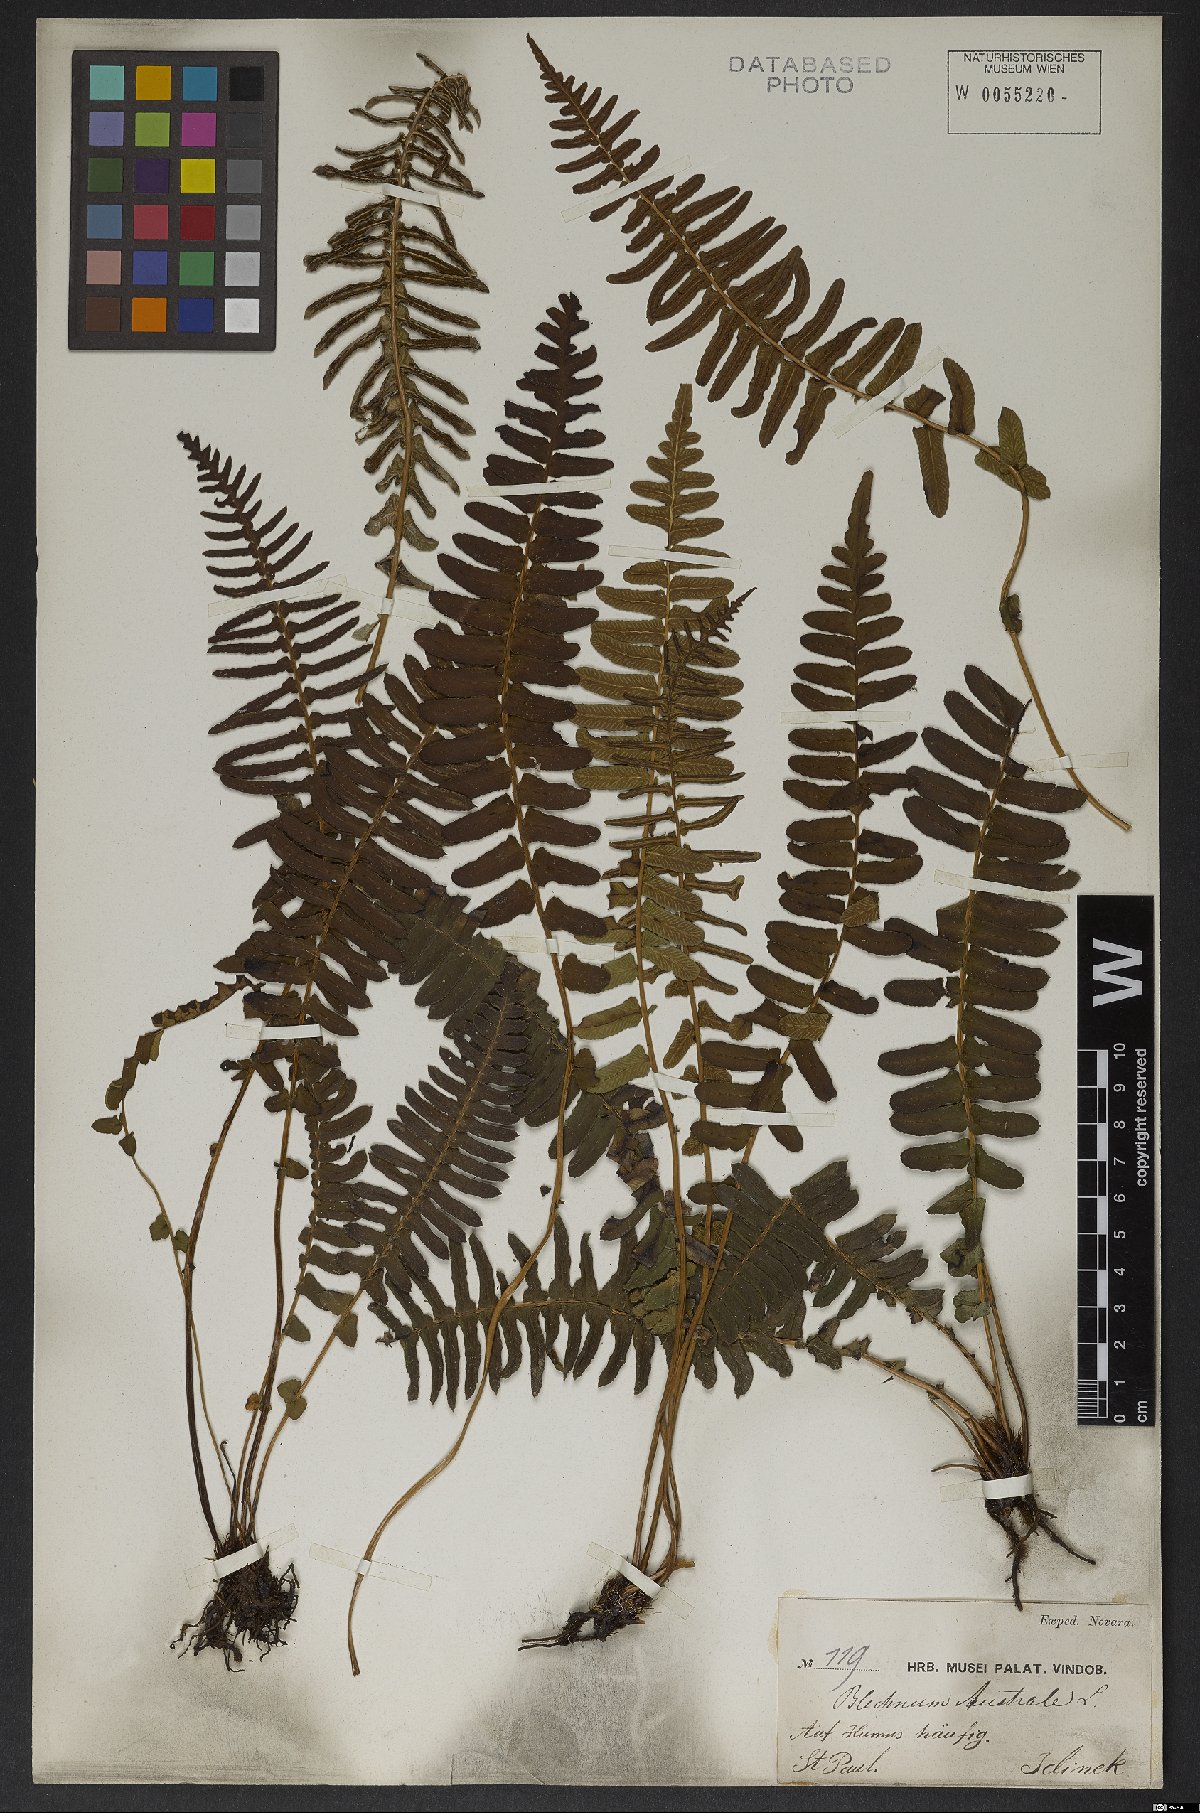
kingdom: Plantae
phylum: Tracheophyta
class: Polypodiopsida
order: Polypodiales
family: Blechnaceae
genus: Blechnum
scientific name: Blechnum australe
